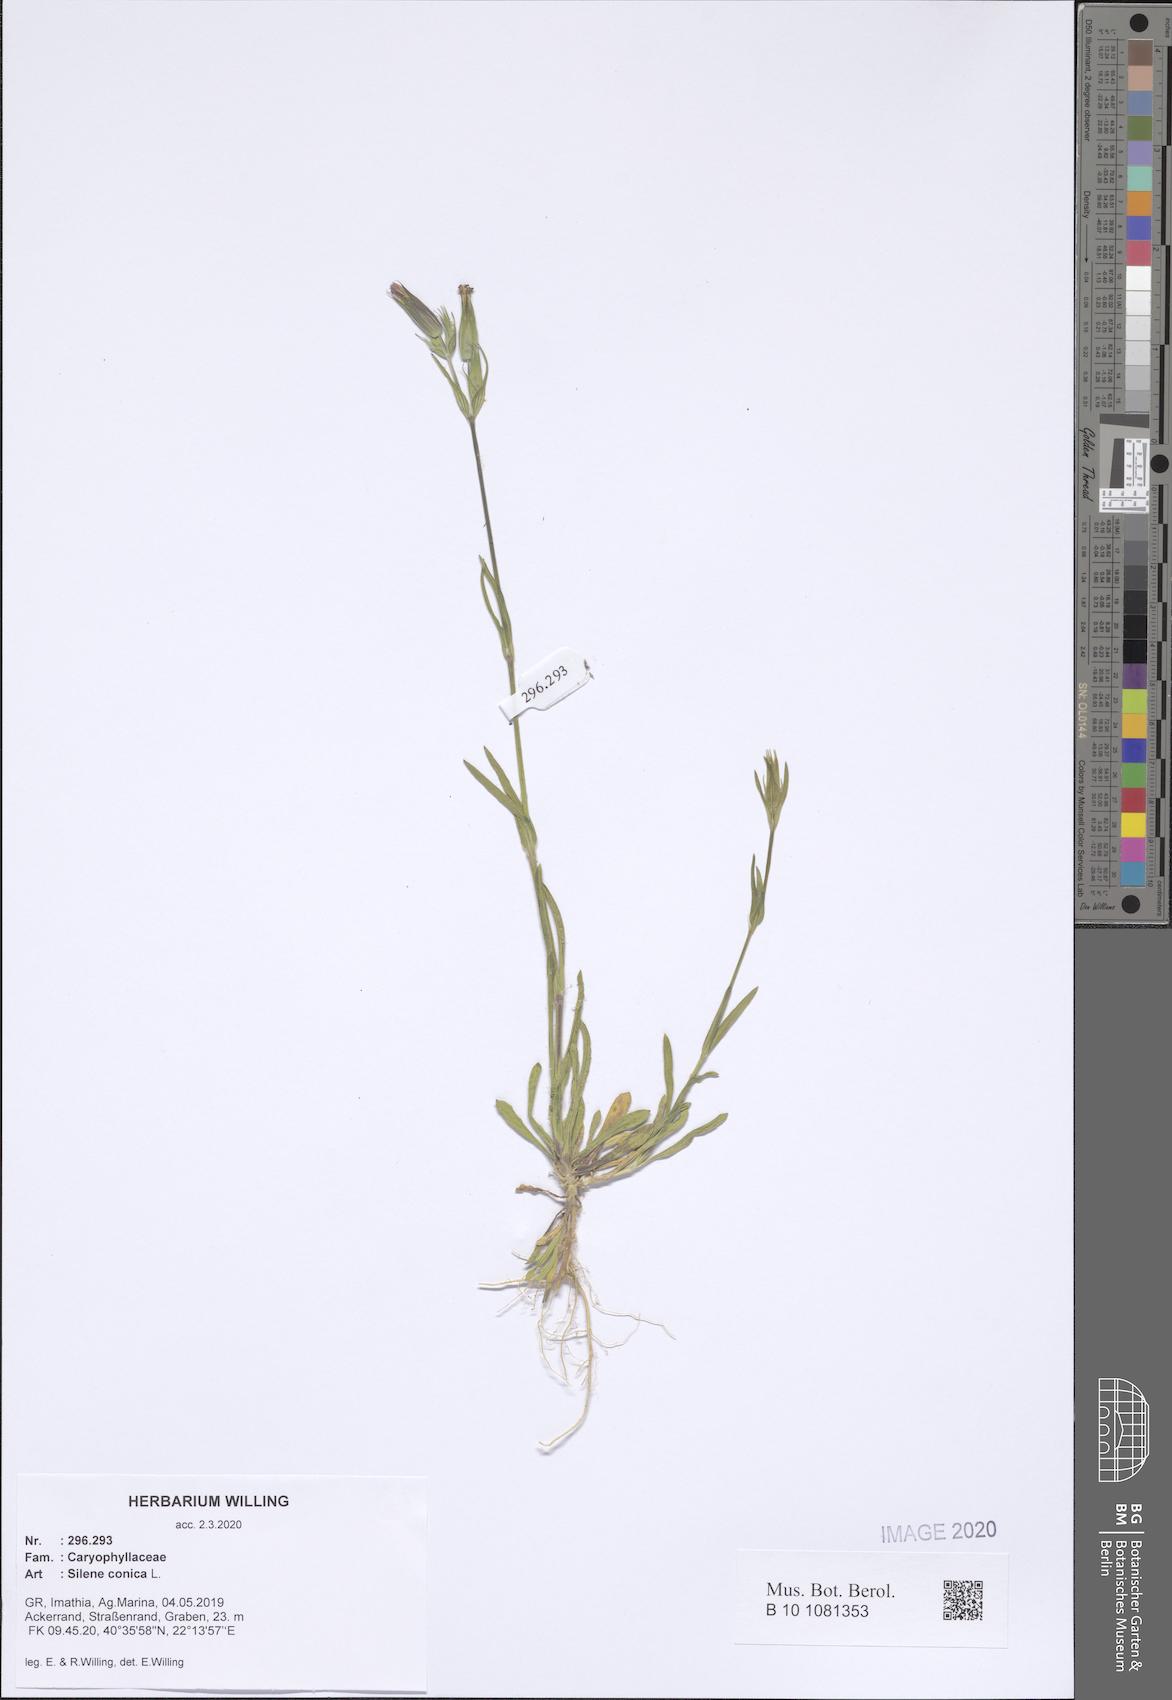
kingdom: Plantae
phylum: Tracheophyta
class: Magnoliopsida
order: Caryophyllales
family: Caryophyllaceae
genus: Silene
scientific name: Silene conica
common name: Sand catchfly
